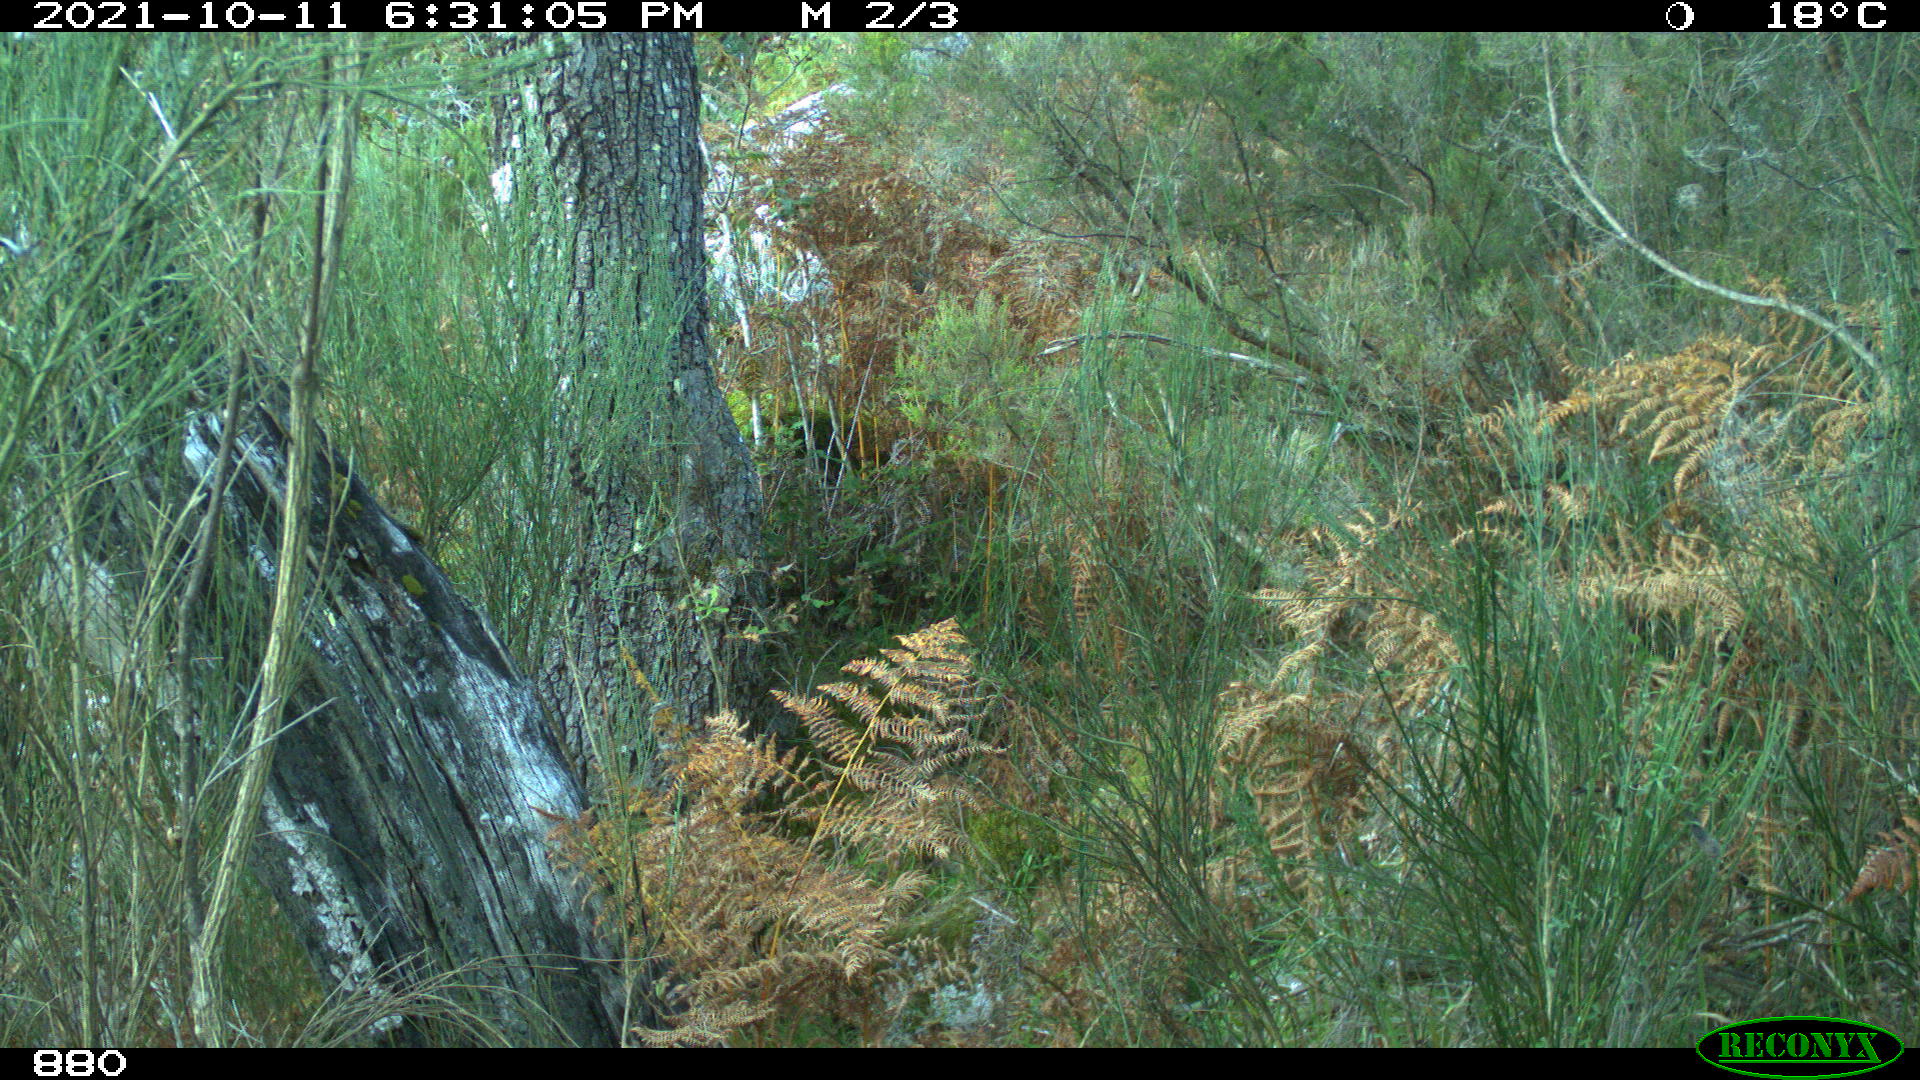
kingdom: Animalia
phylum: Chordata
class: Mammalia
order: Artiodactyla
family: Bovidae
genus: Bos
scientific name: Bos taurus
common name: Domesticated cattle
